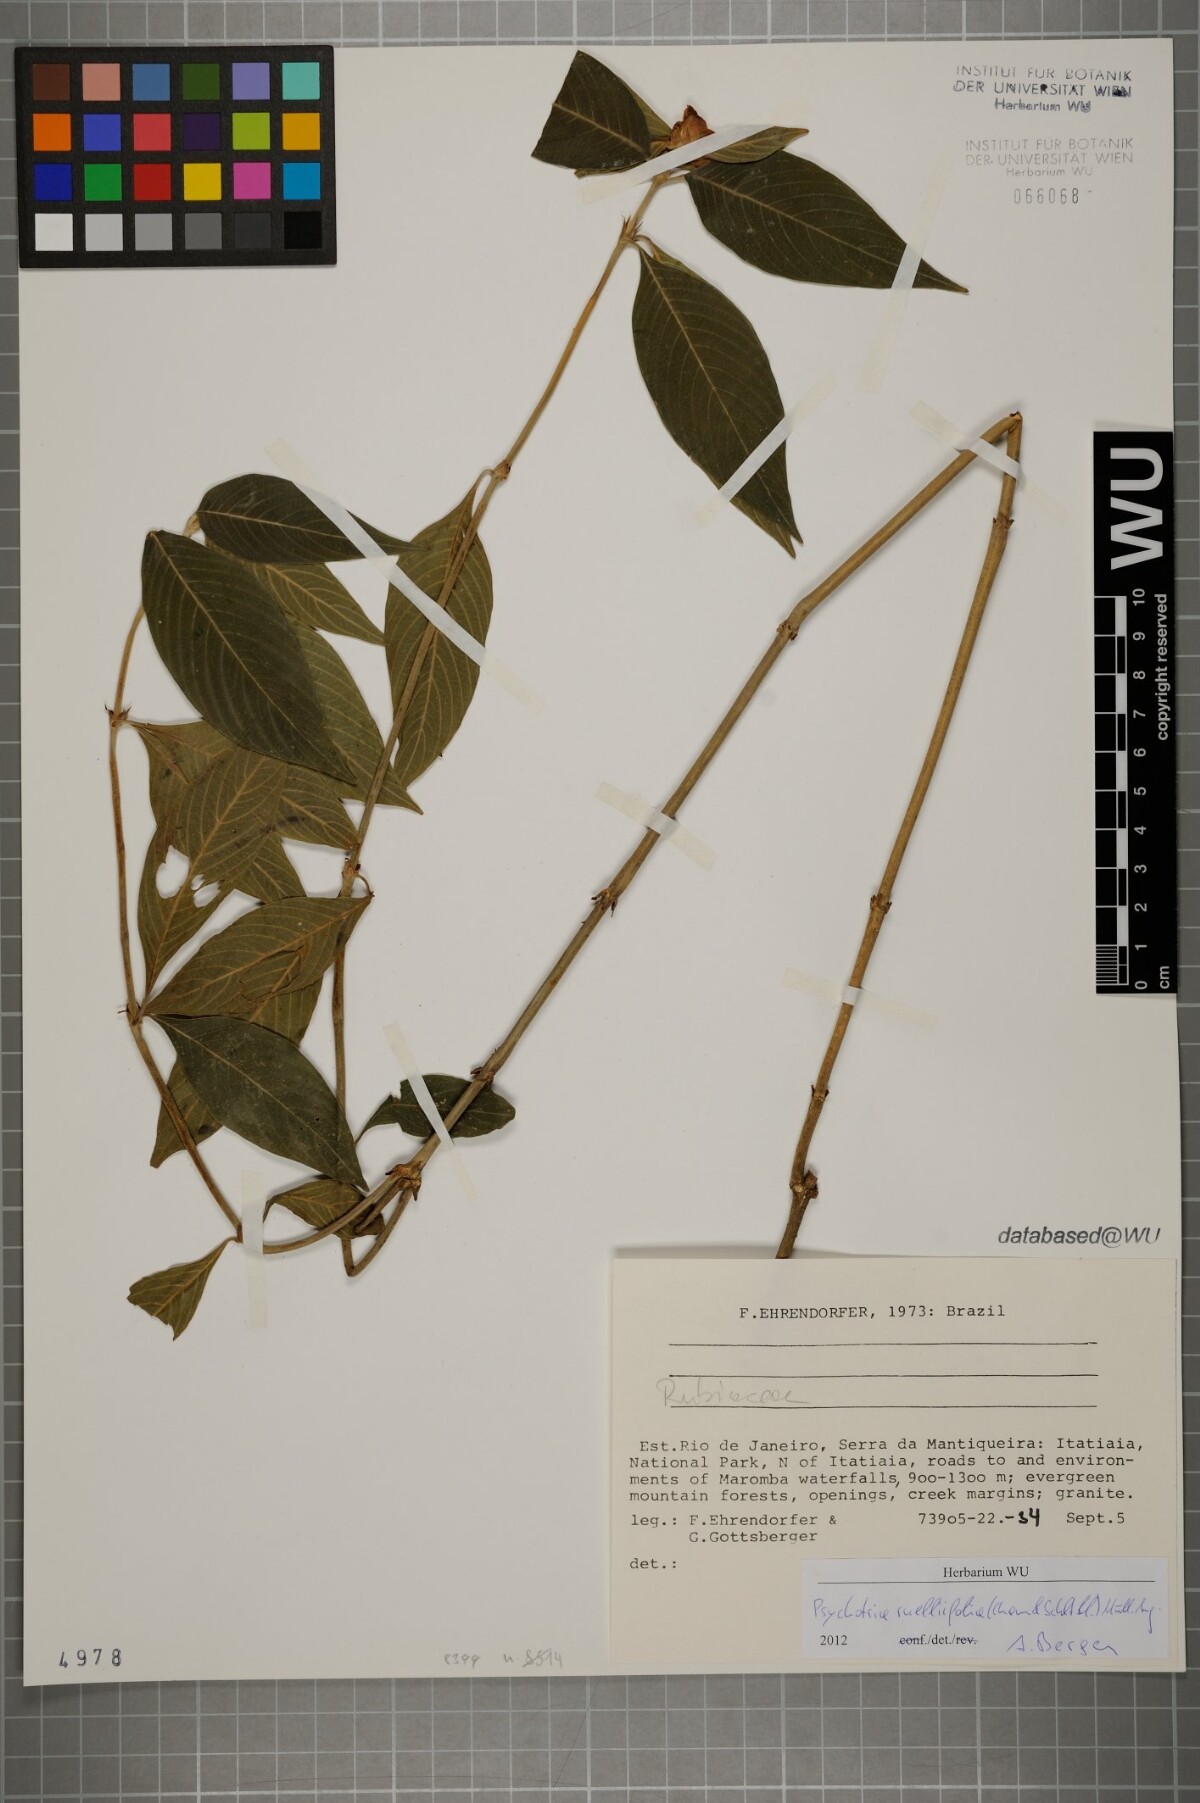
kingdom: Plantae
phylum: Tracheophyta
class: Magnoliopsida
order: Gentianales
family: Rubiaceae
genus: Palicourea
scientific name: Palicourea ruelliifolia
